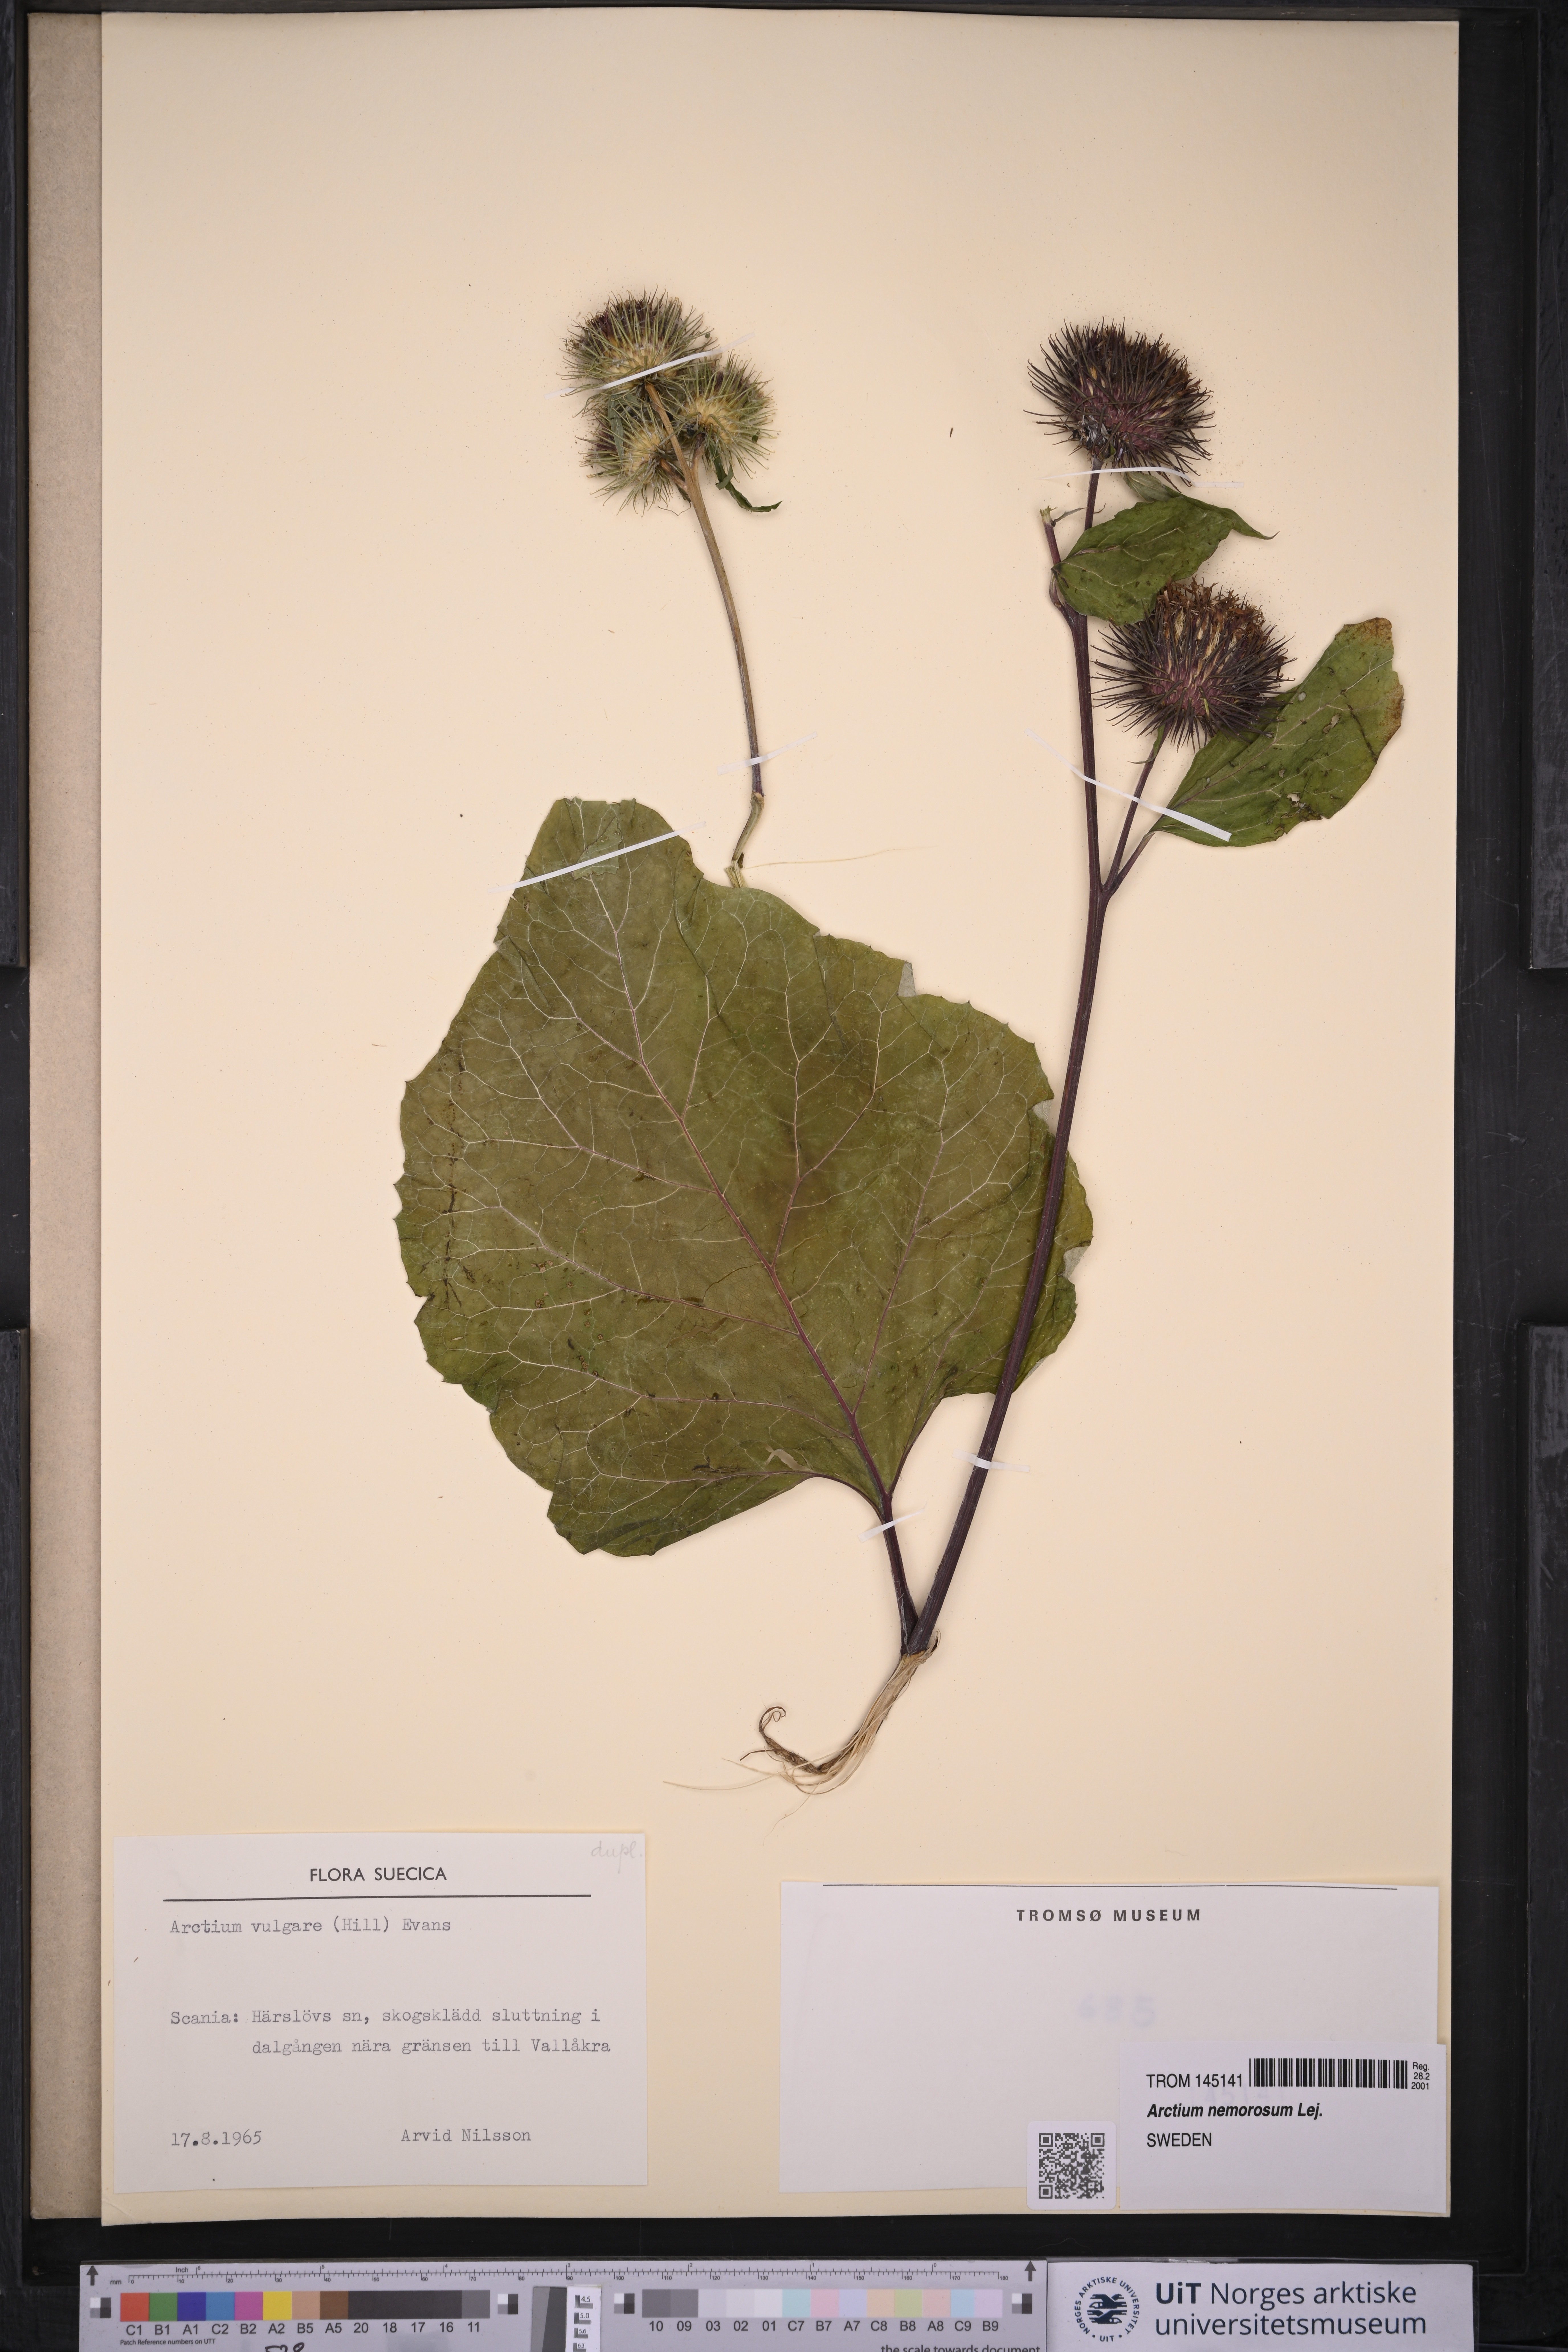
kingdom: Plantae
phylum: Tracheophyta
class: Magnoliopsida
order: Asterales
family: Asteraceae
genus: Arctium
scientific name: Arctium lappa
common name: Greater burdock
